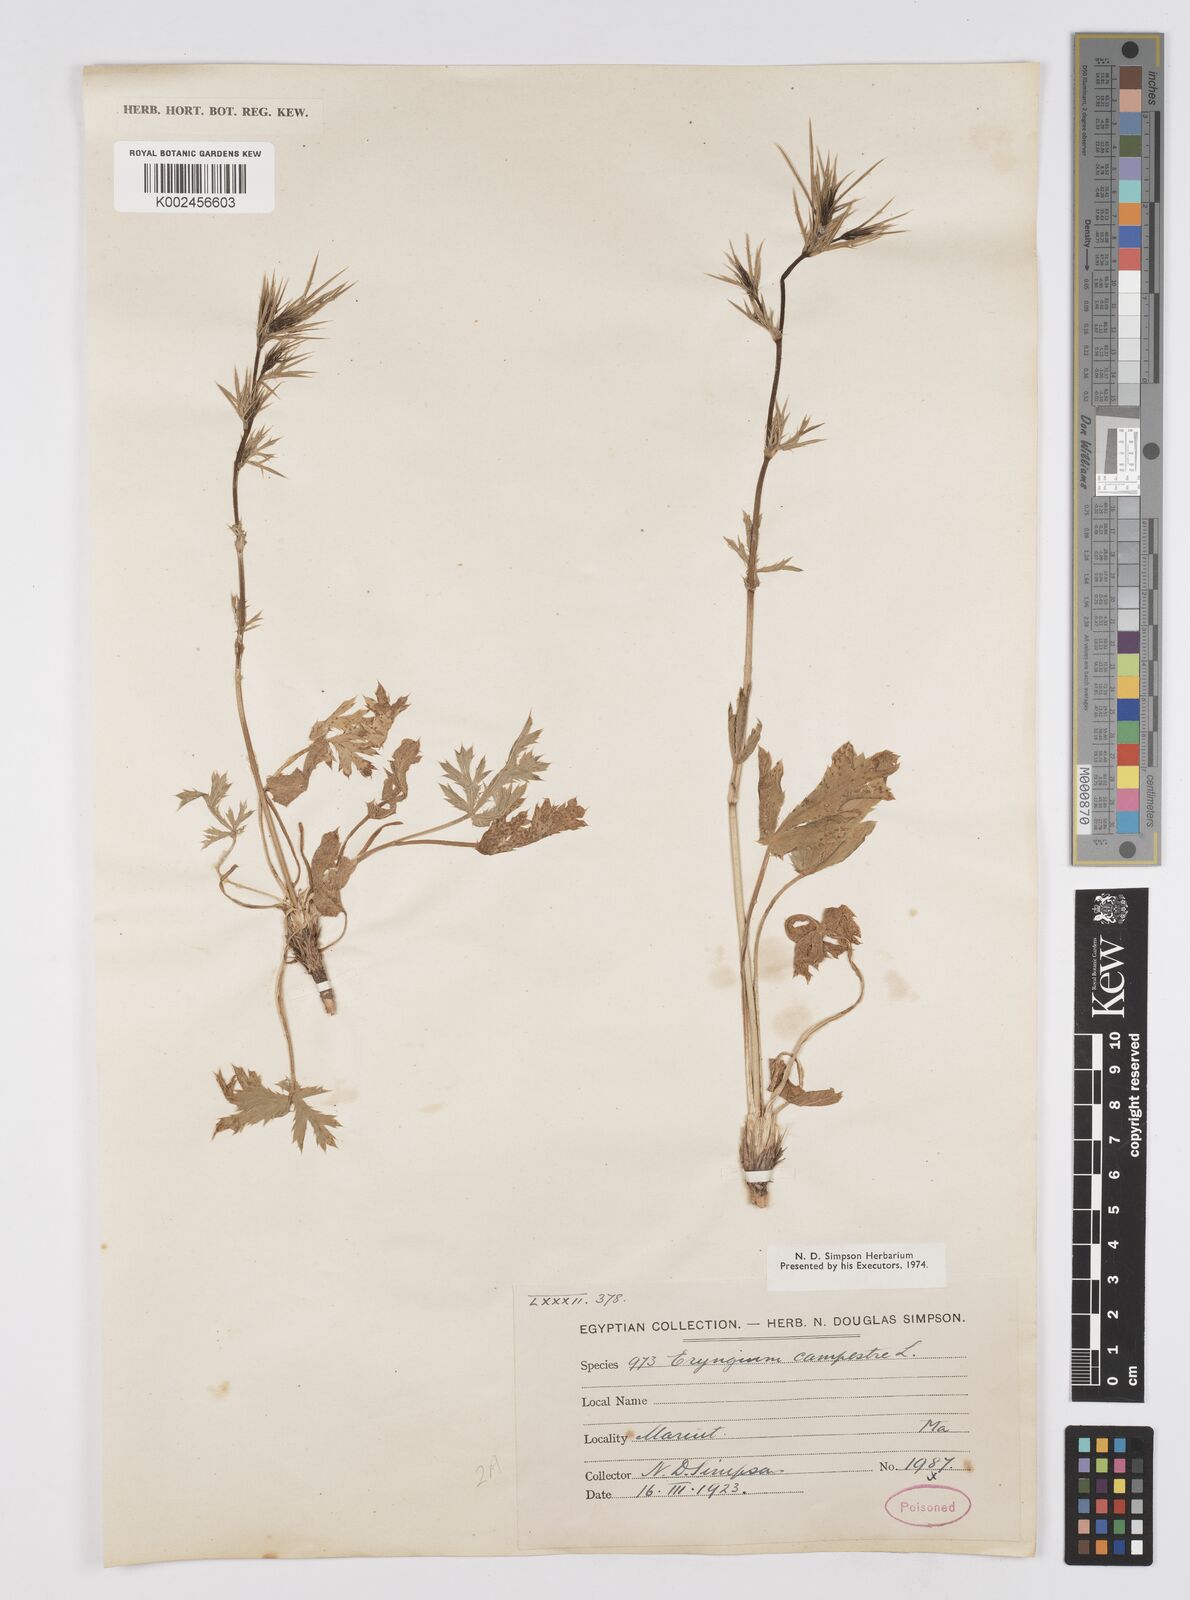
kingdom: Plantae
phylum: Tracheophyta
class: Magnoliopsida
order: Apiales
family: Apiaceae
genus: Eryngium
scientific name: Eryngium campestre
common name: Field eryngo
